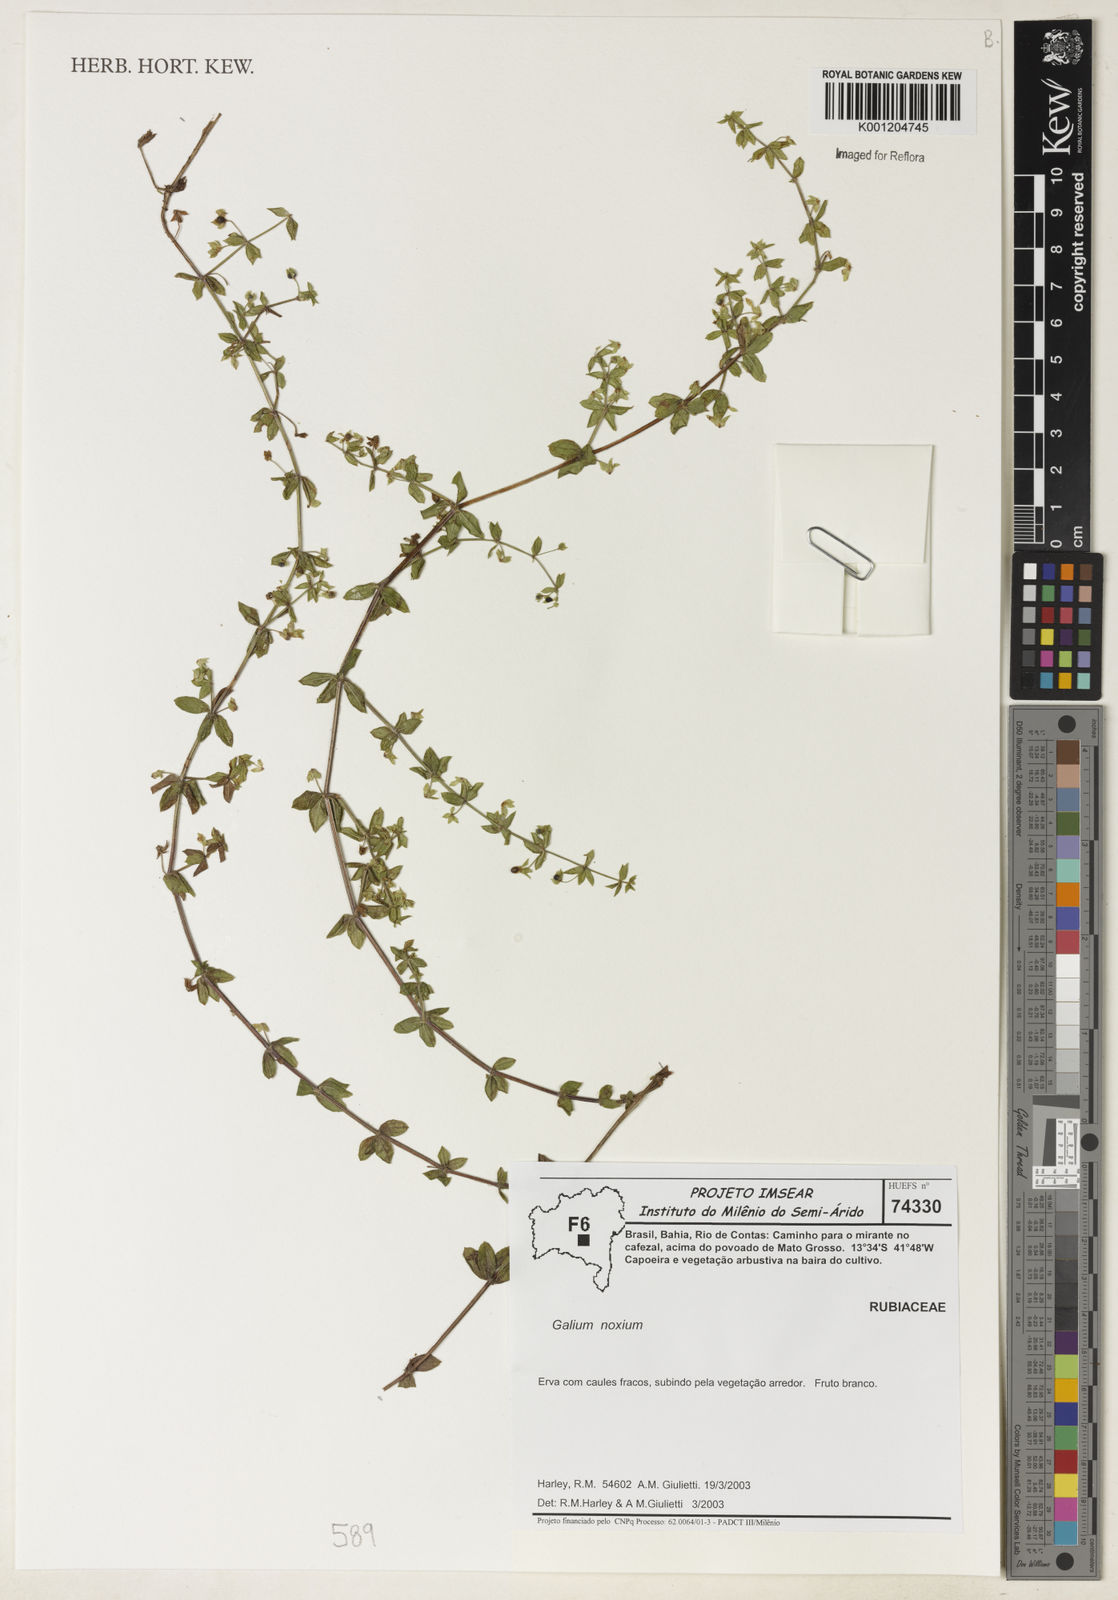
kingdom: Plantae
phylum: Tracheophyta
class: Magnoliopsida
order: Gentianales
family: Rubiaceae
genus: Galium
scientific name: Galium noxium
